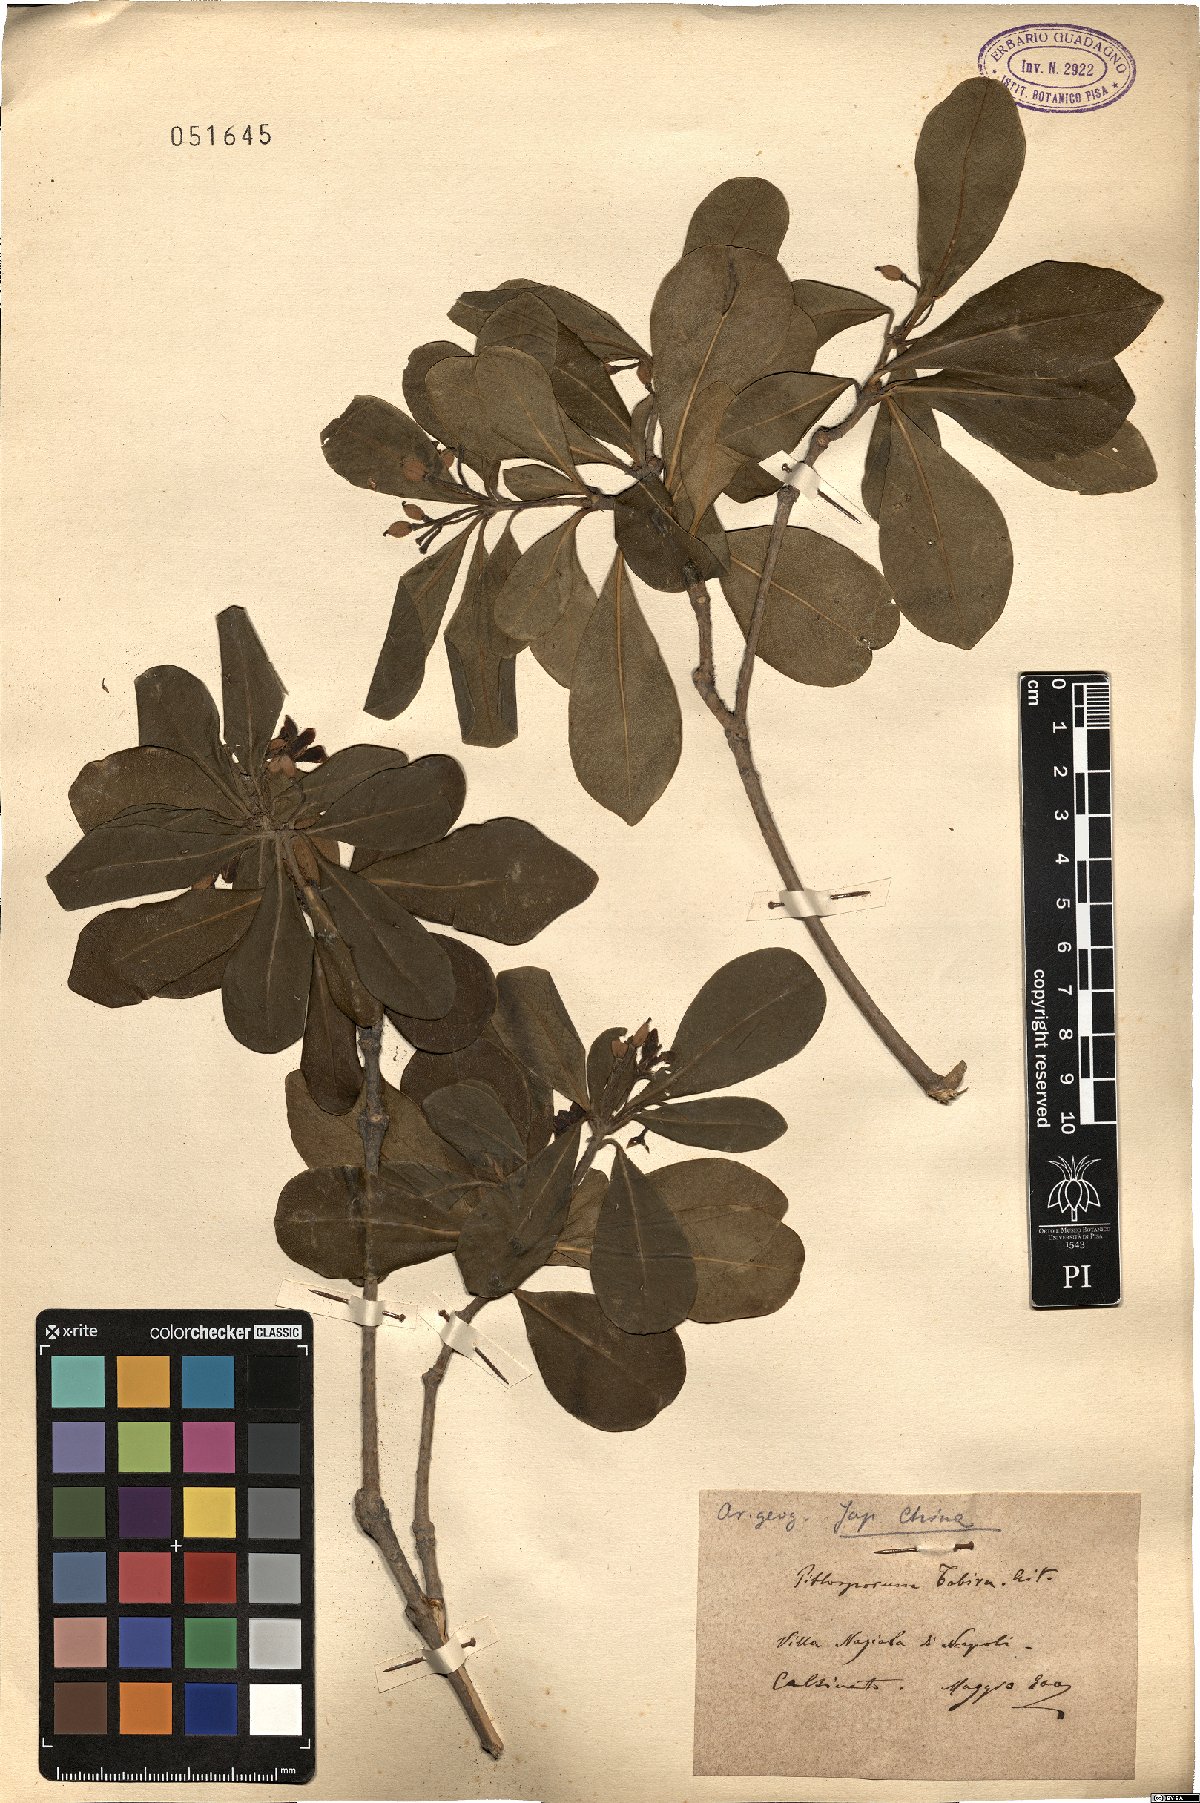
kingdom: Plantae
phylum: Tracheophyta
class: Magnoliopsida
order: Apiales
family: Pittosporaceae
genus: Pittosporum
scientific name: Pittosporum tobira
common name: Japanese cheesewood
